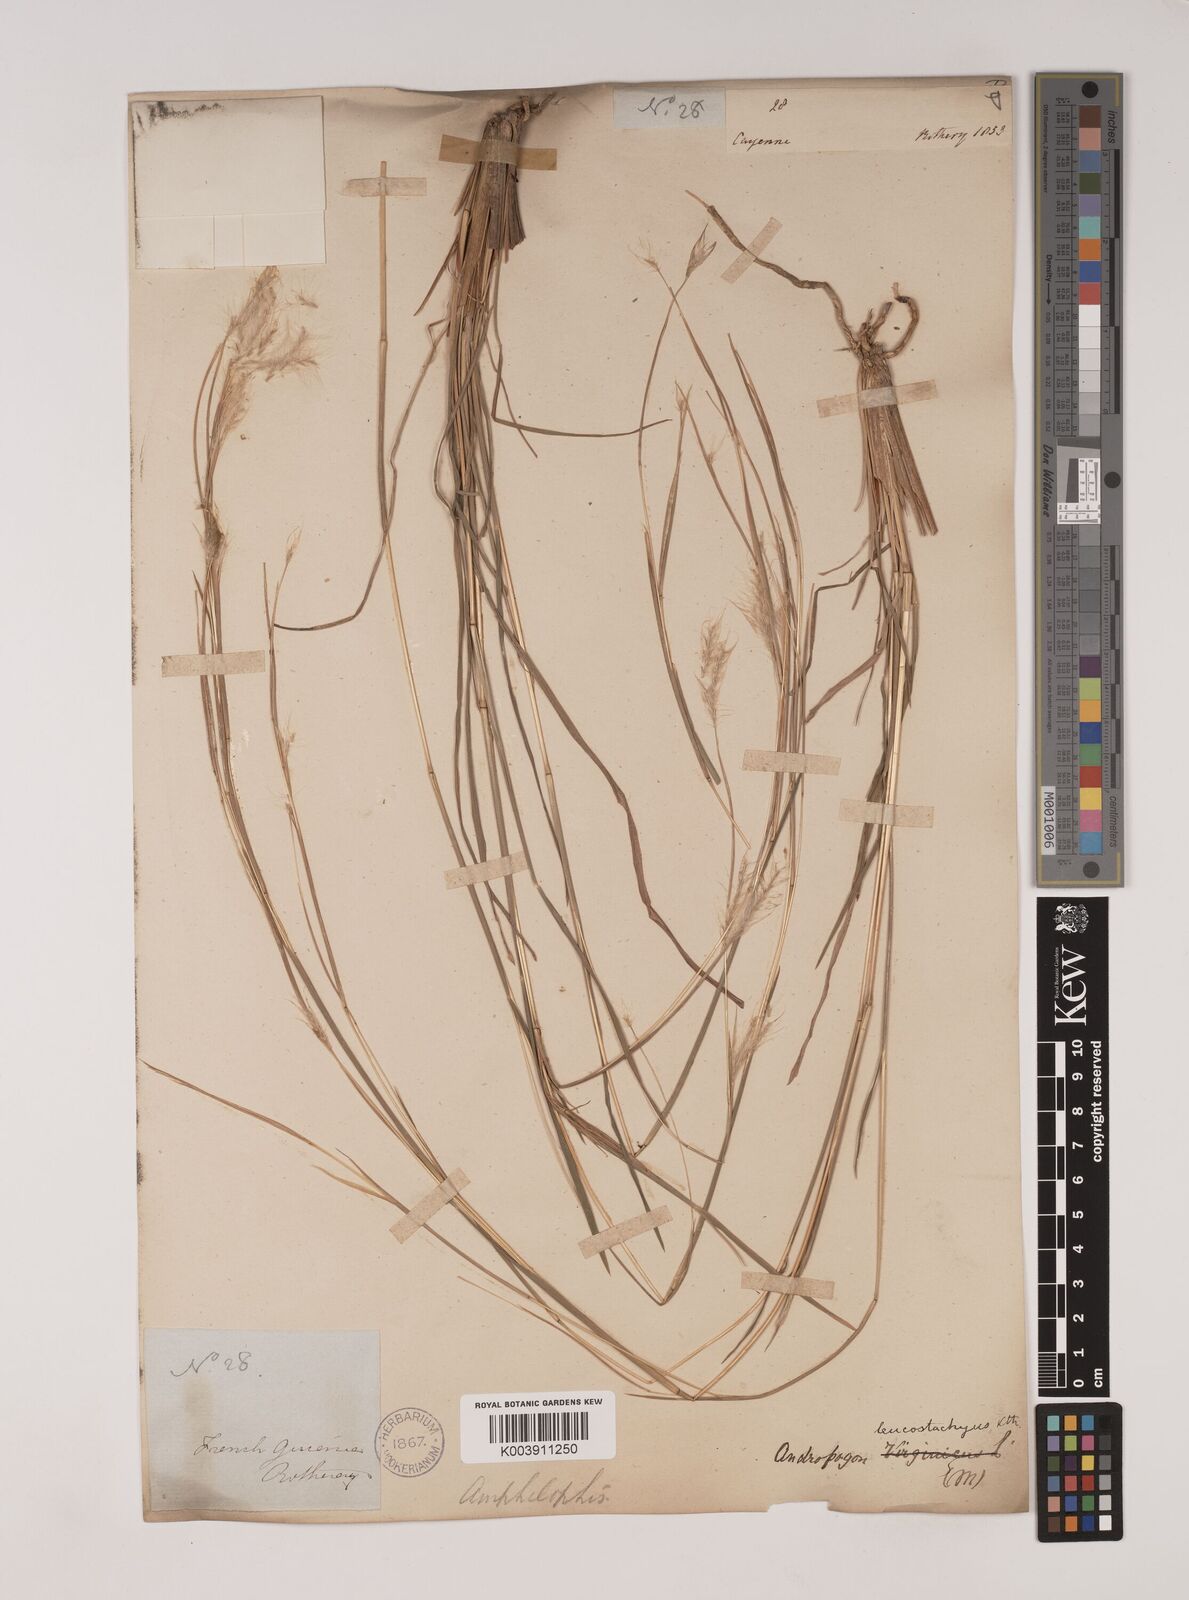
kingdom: Plantae
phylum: Tracheophyta
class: Liliopsida
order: Poales
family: Poaceae
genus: Andropogon
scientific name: Andropogon leucostachyus
